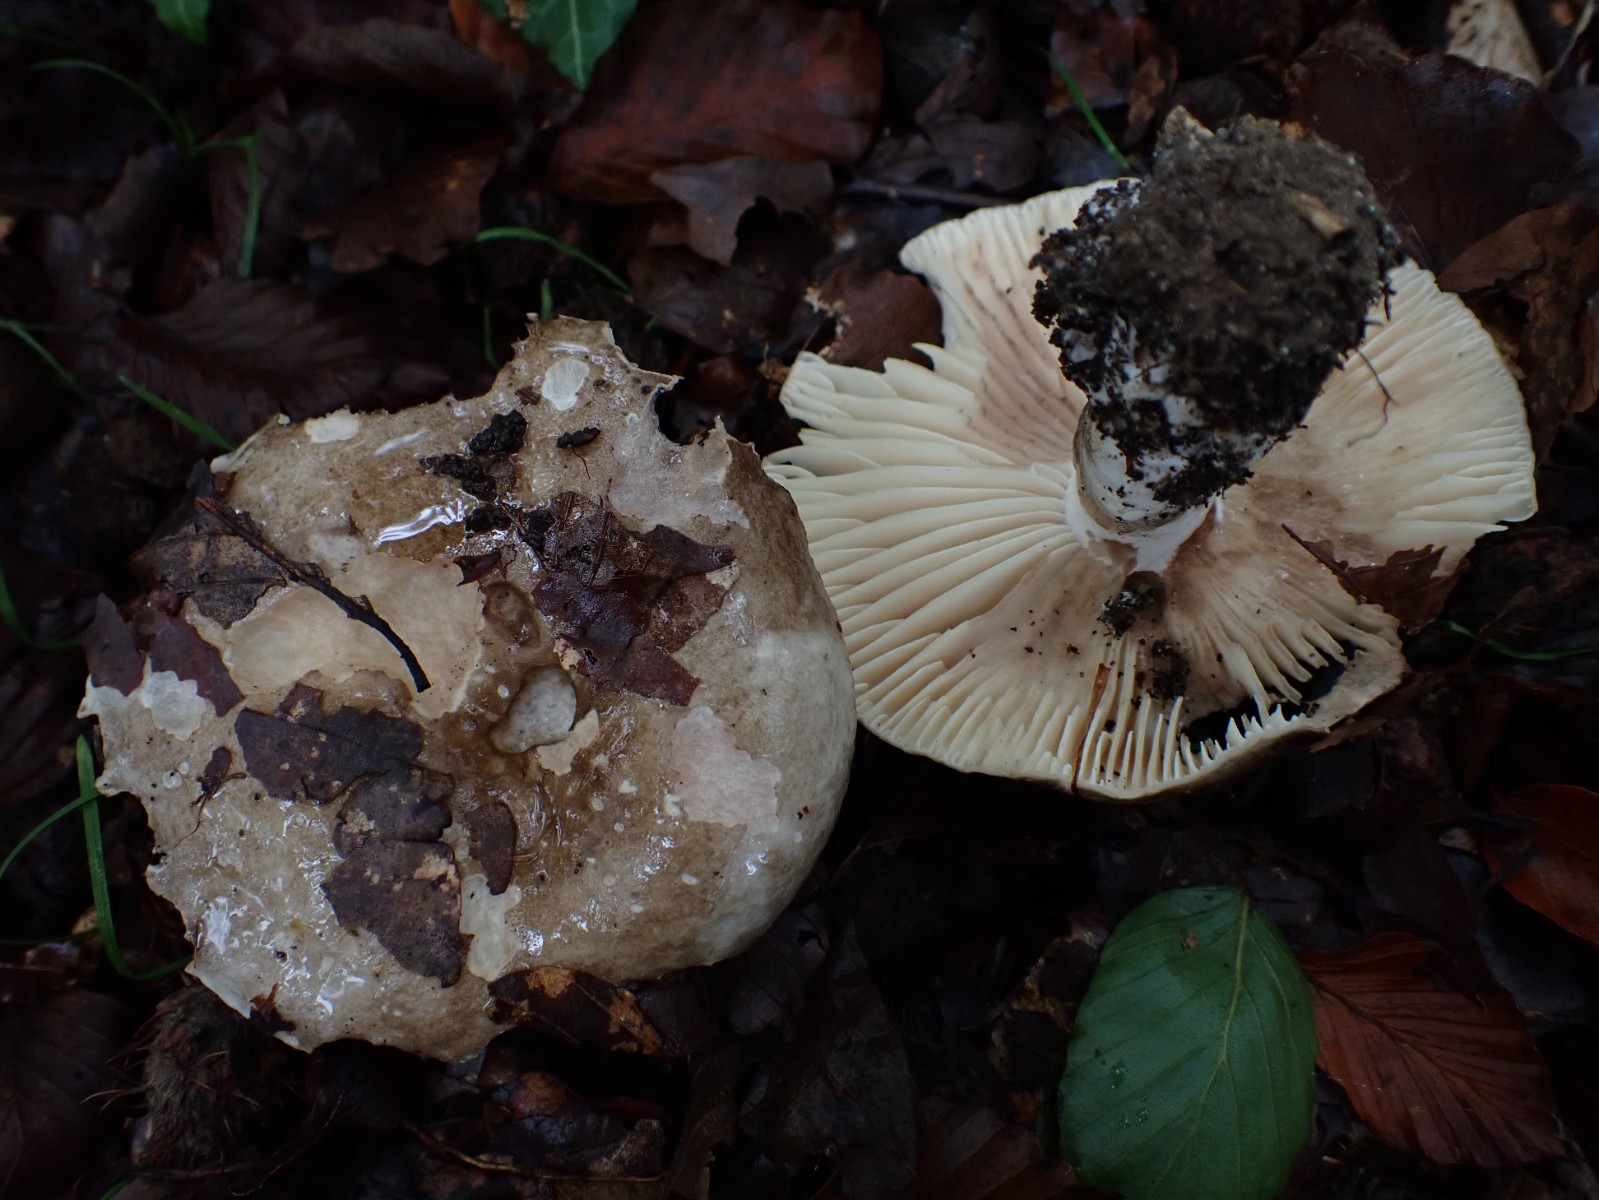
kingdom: Fungi
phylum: Basidiomycota
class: Agaricomycetes
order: Russulales
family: Russulaceae
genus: Russula
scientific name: Russula adusta
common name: sværtende skørhat
